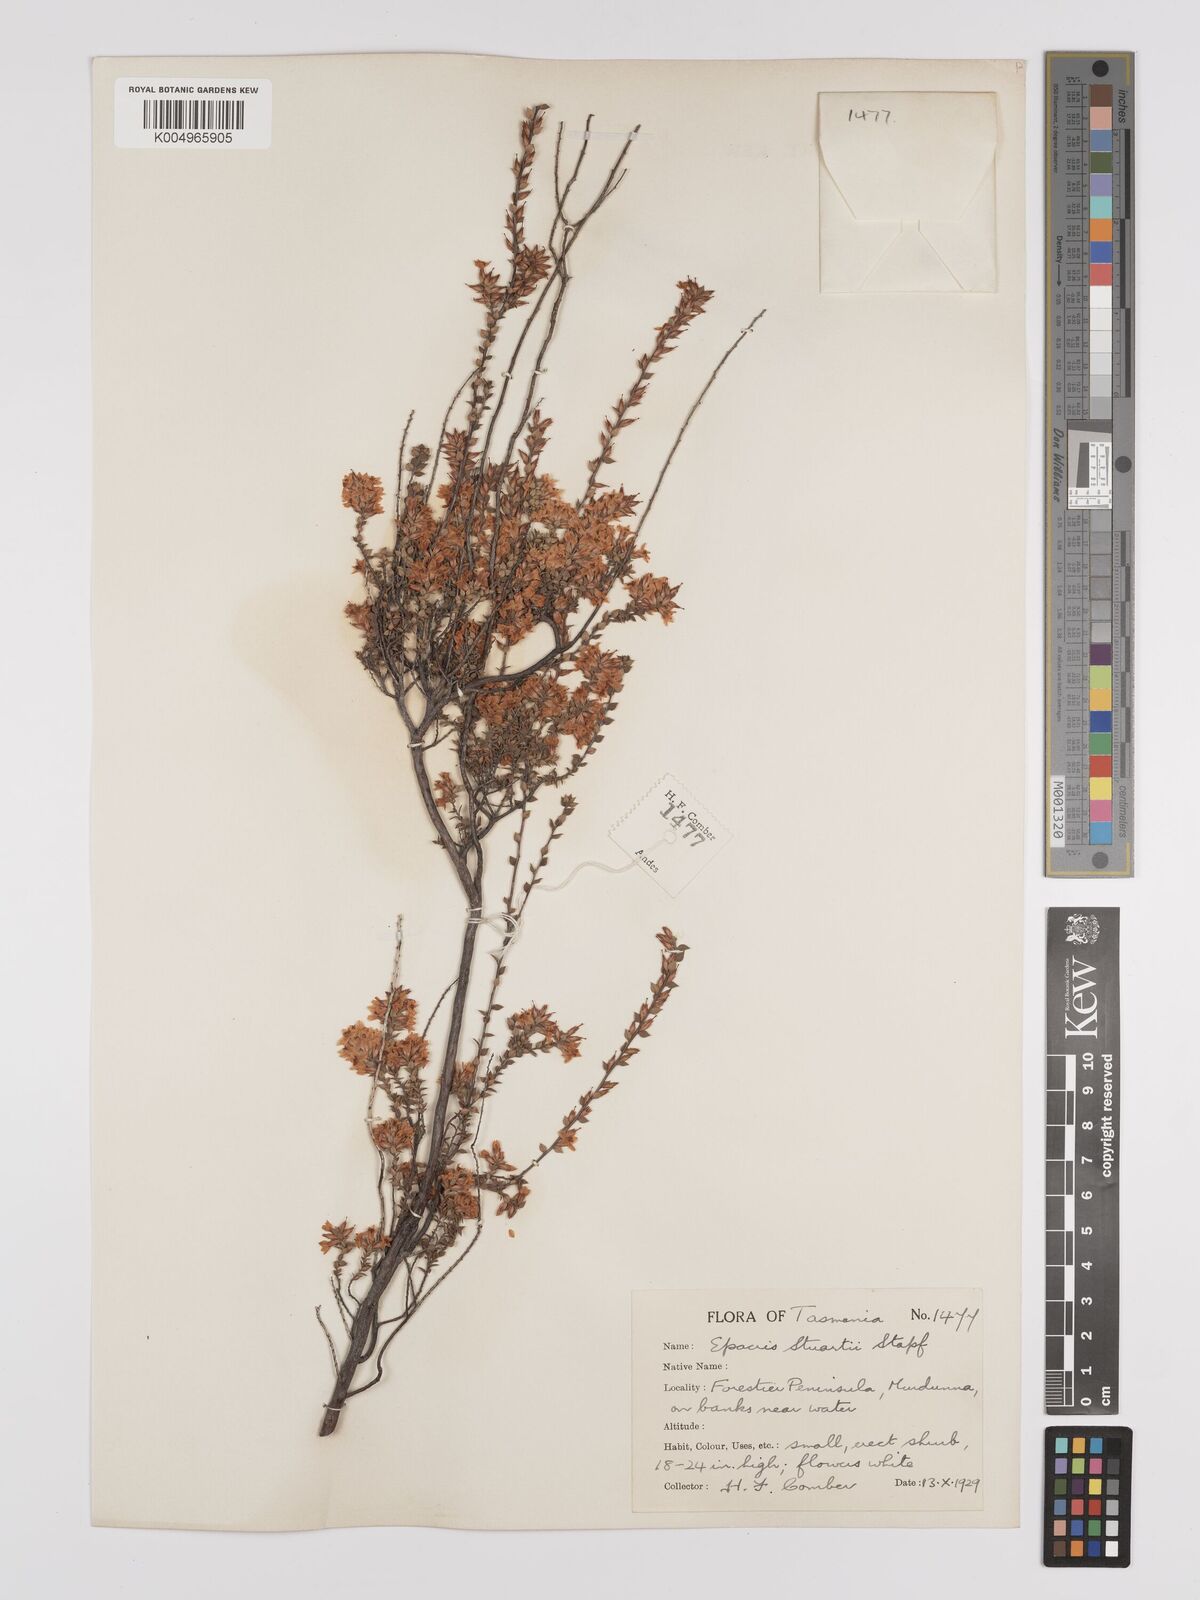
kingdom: Plantae
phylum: Tracheophyta
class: Magnoliopsida
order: Ericales
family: Ericaceae
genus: Epacris
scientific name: Epacris stuartii
